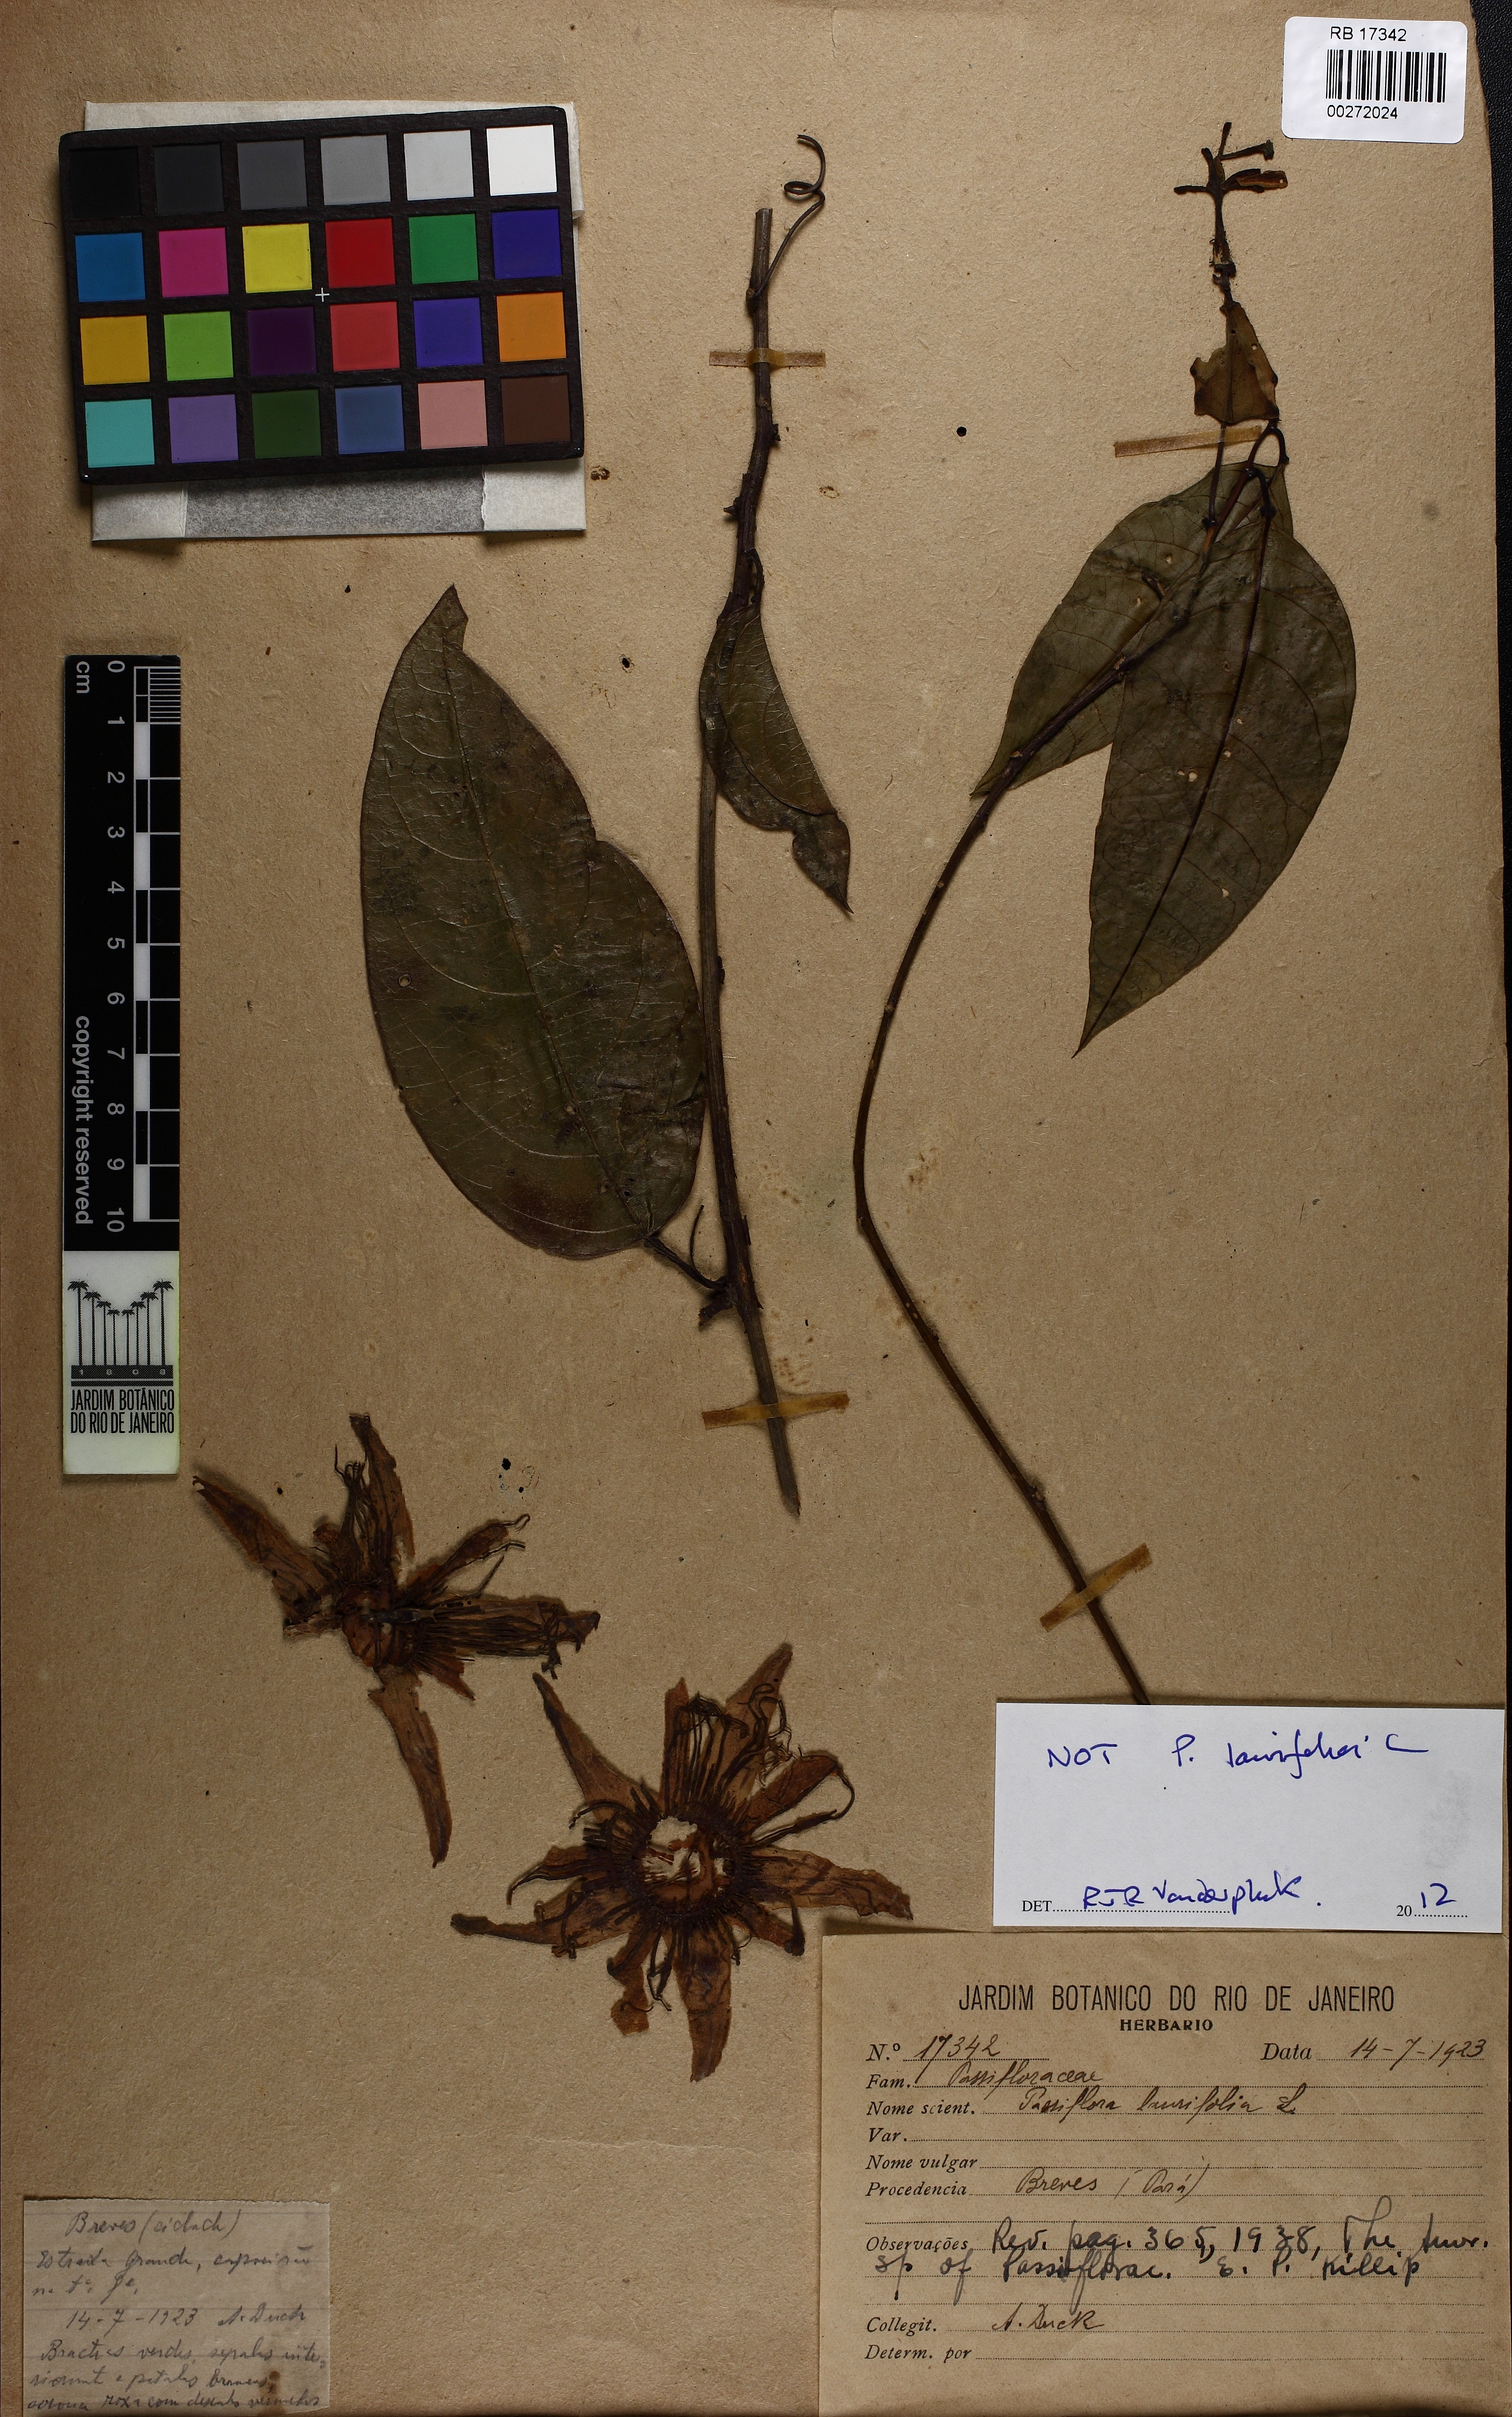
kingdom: Plantae
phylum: Tracheophyta
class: Magnoliopsida
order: Malpighiales
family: Passifloraceae
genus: Passiflora
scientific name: Passiflora
